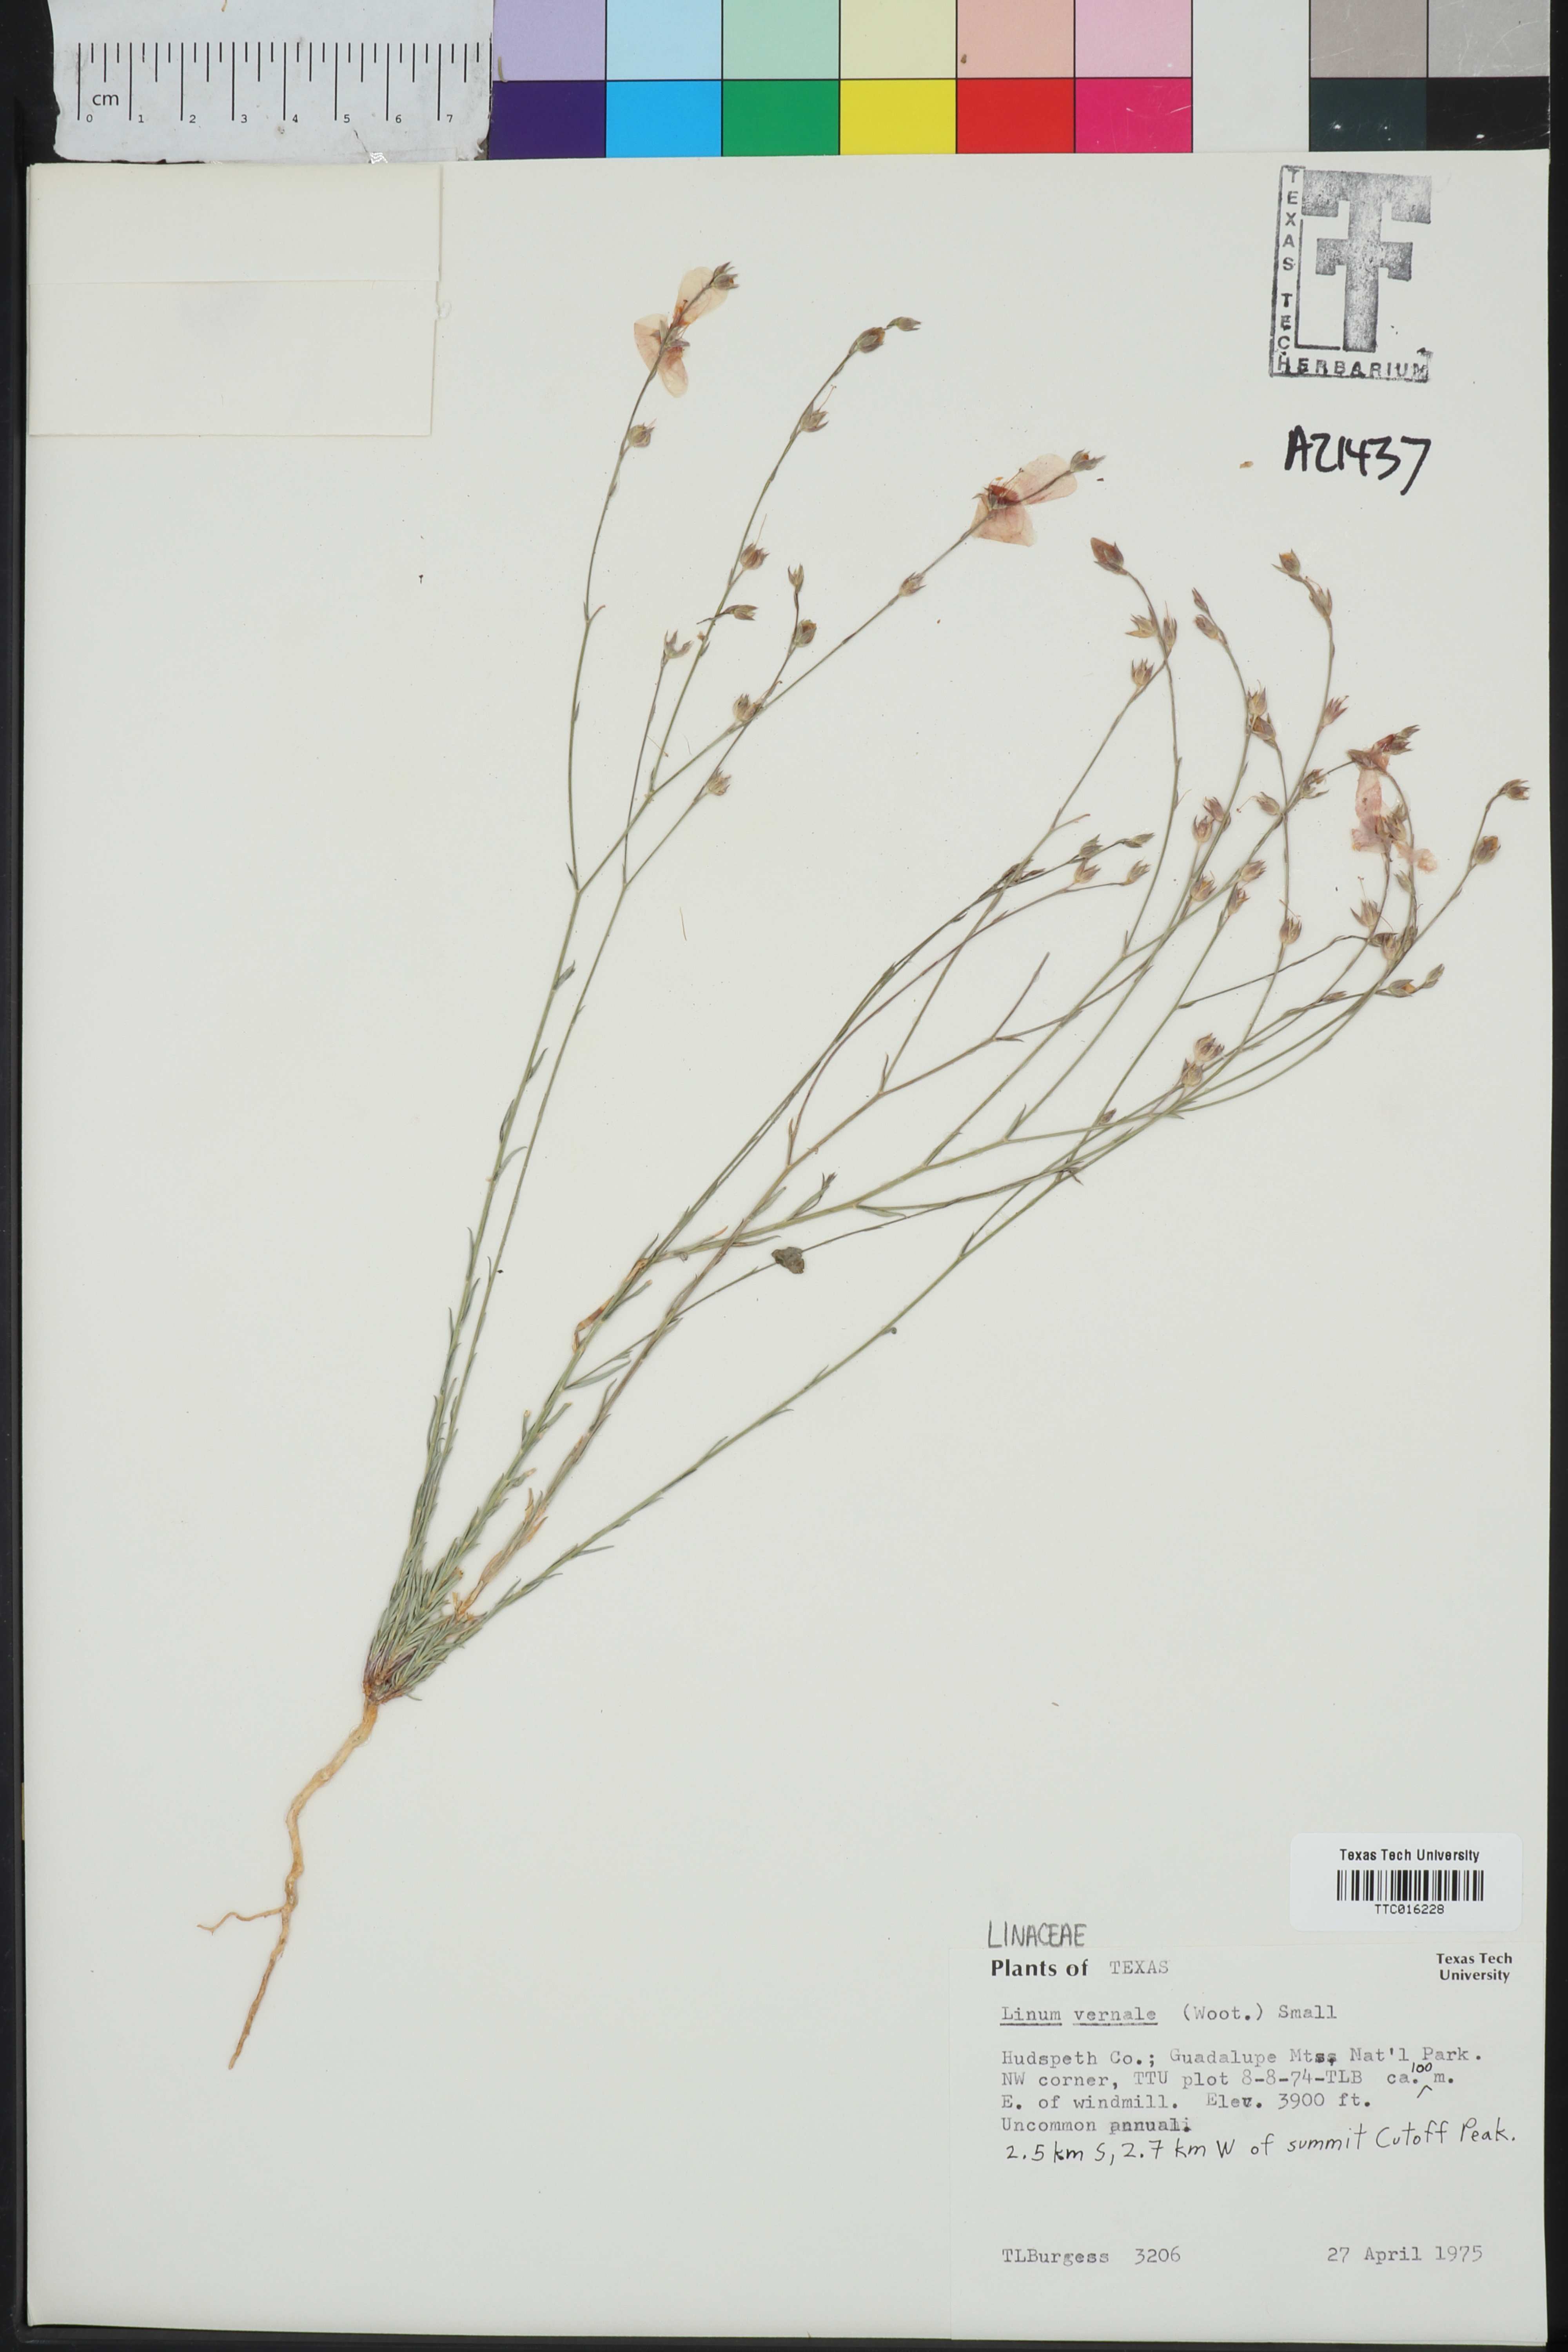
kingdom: Plantae
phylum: Tracheophyta
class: Magnoliopsida
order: Malpighiales
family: Linaceae
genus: Linum
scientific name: Linum vernale
